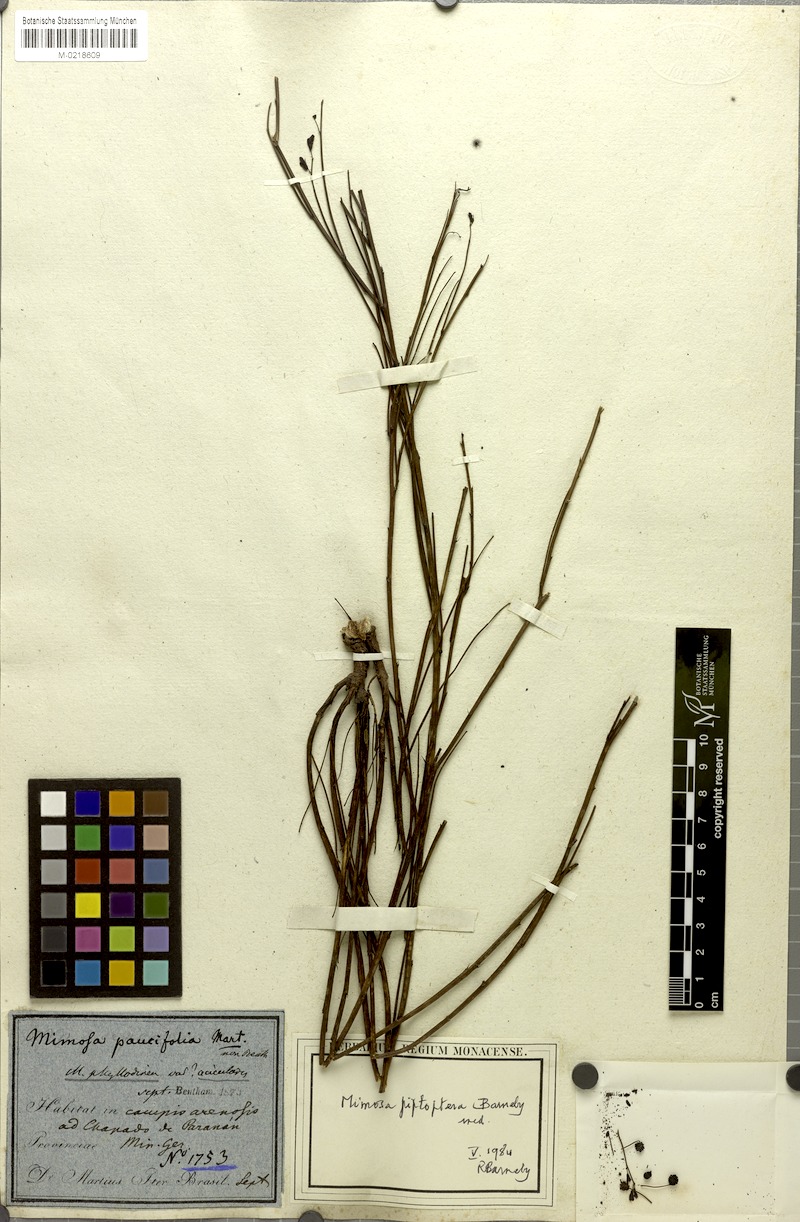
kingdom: Plantae
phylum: Tracheophyta
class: Magnoliopsida
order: Fabales
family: Fabaceae
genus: Mimosa
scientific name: Mimosa piptoptera
